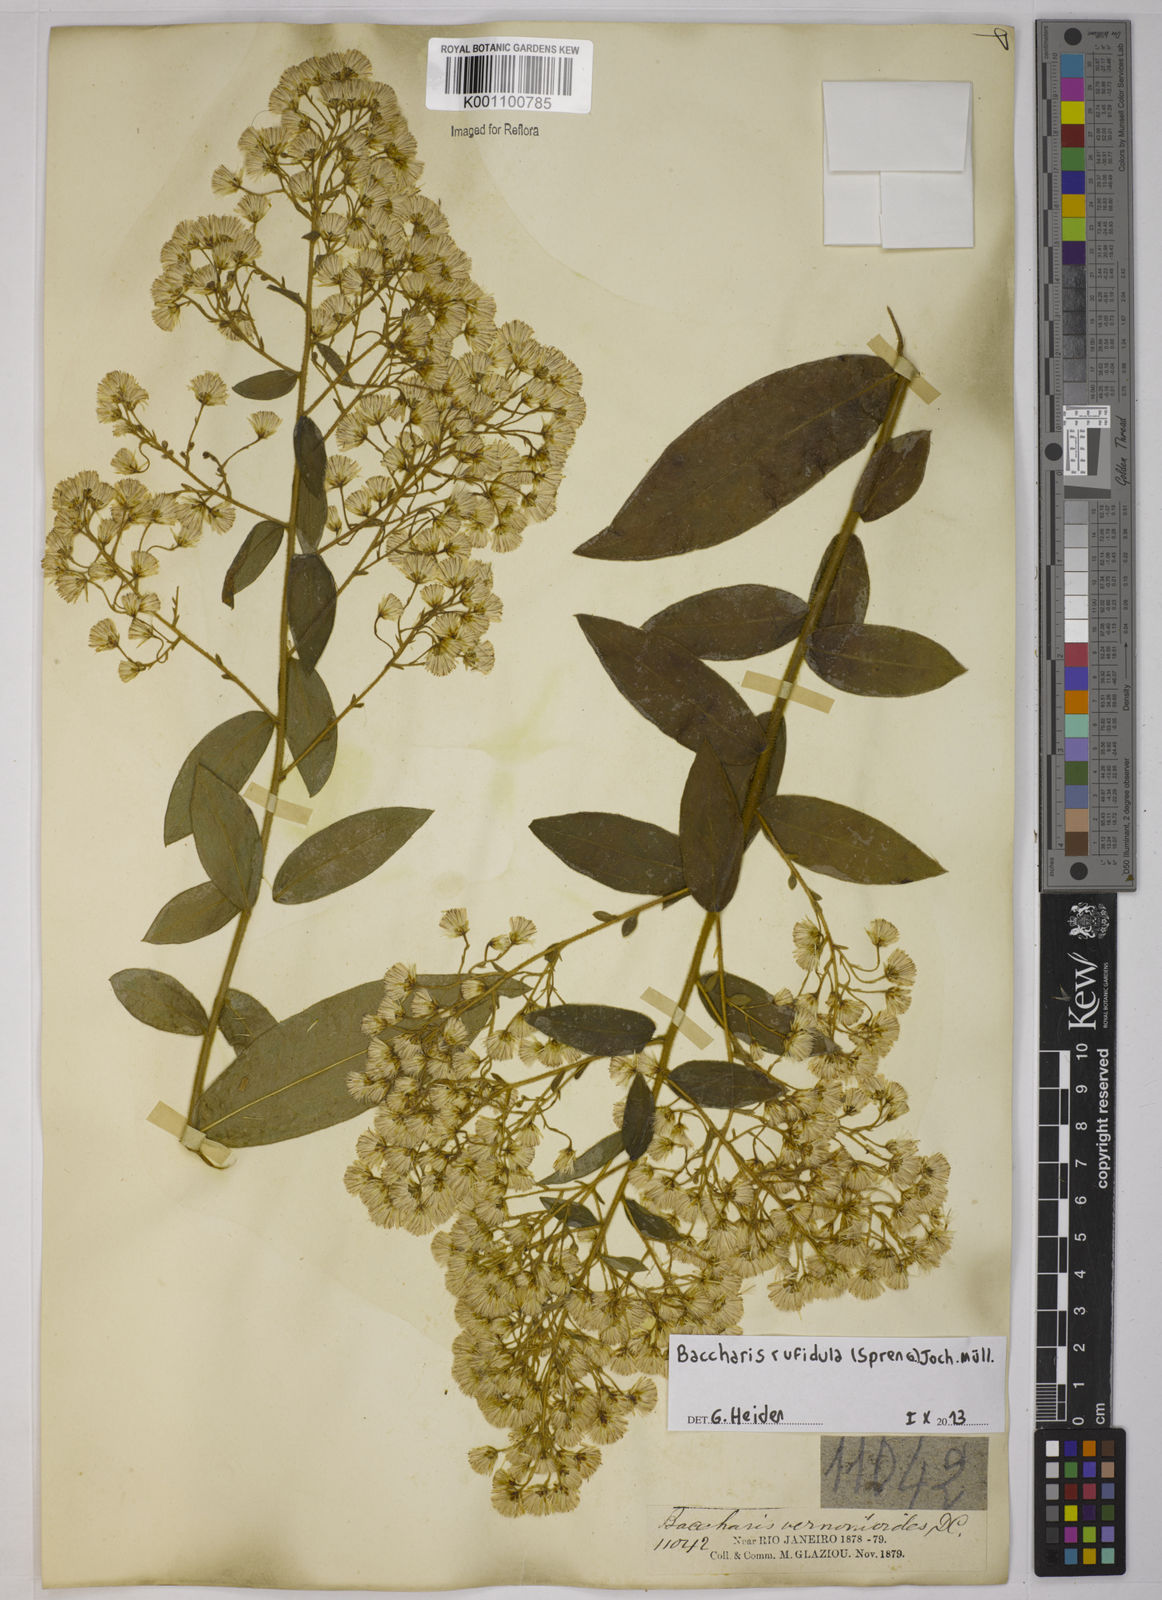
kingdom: Plantae
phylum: Tracheophyta
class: Magnoliopsida
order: Asterales
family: Asteraceae
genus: Baccharis
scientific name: Baccharis rufidula
